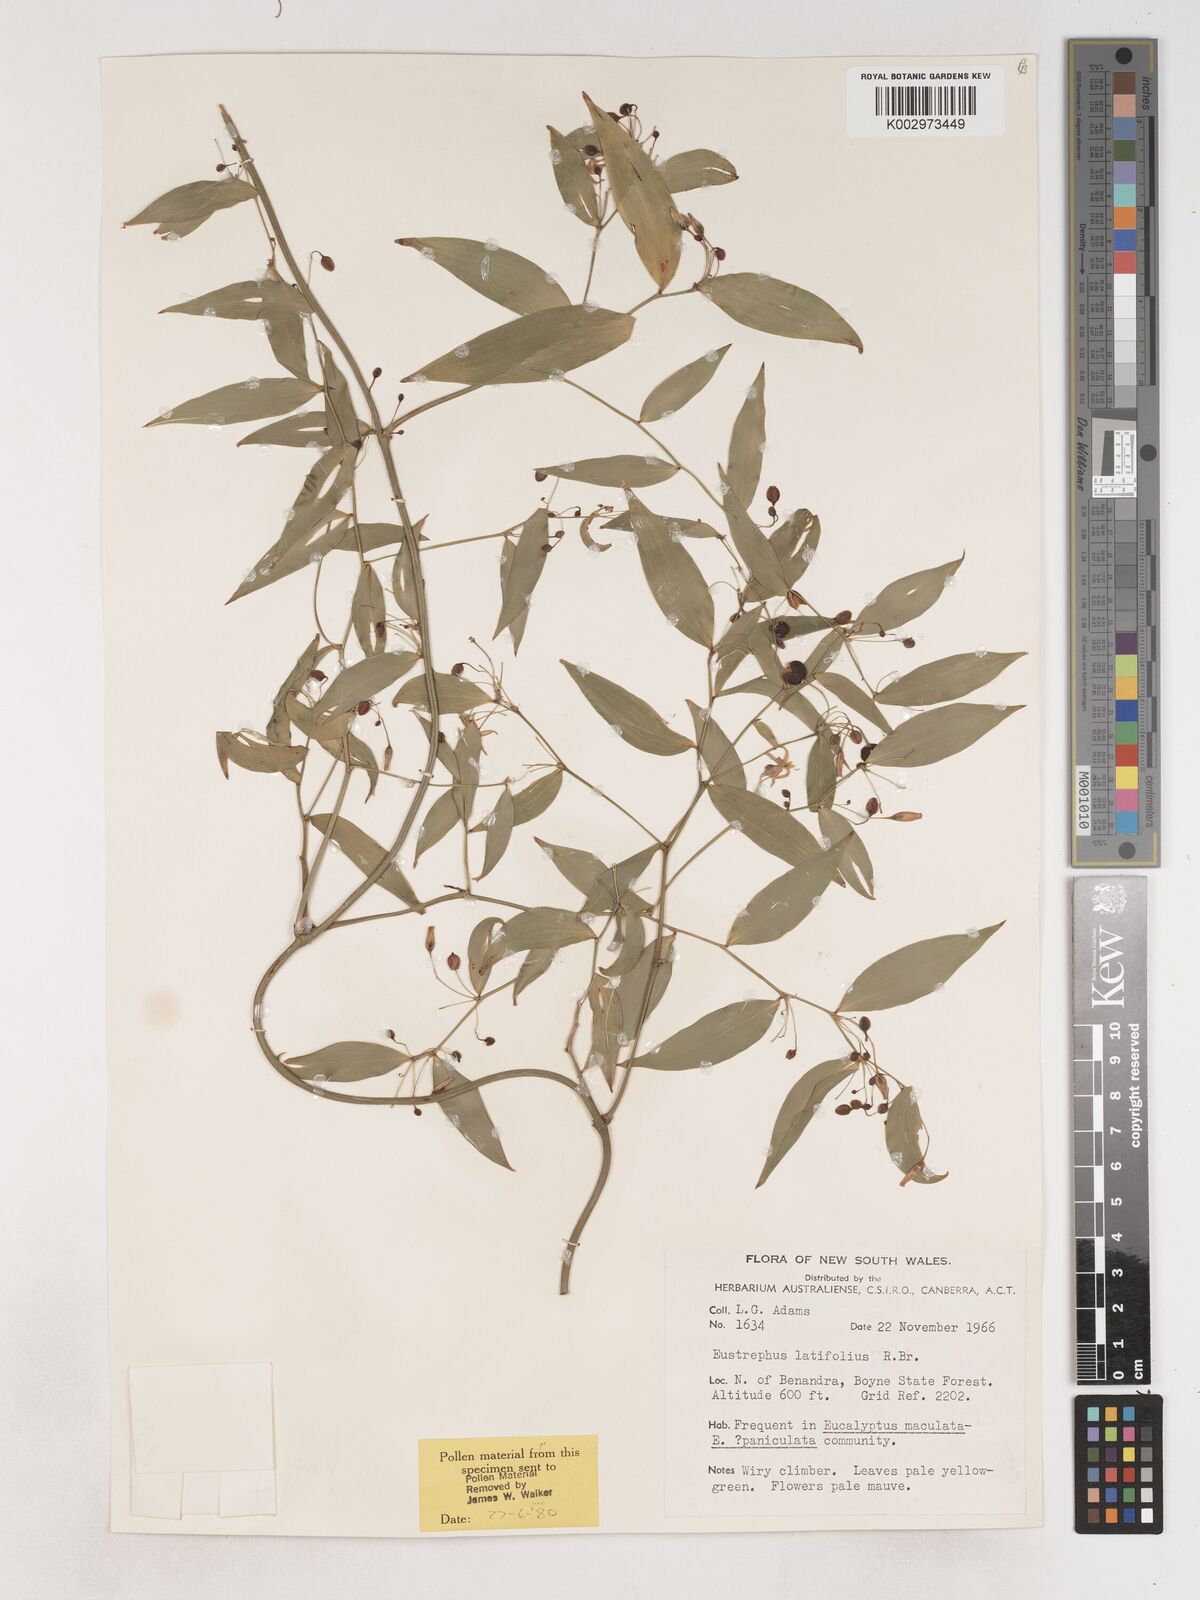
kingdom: Plantae
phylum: Tracheophyta
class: Liliopsida
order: Asparagales
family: Asparagaceae
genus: Eustrephus
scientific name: Eustrephus latifolius
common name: Orangevine
